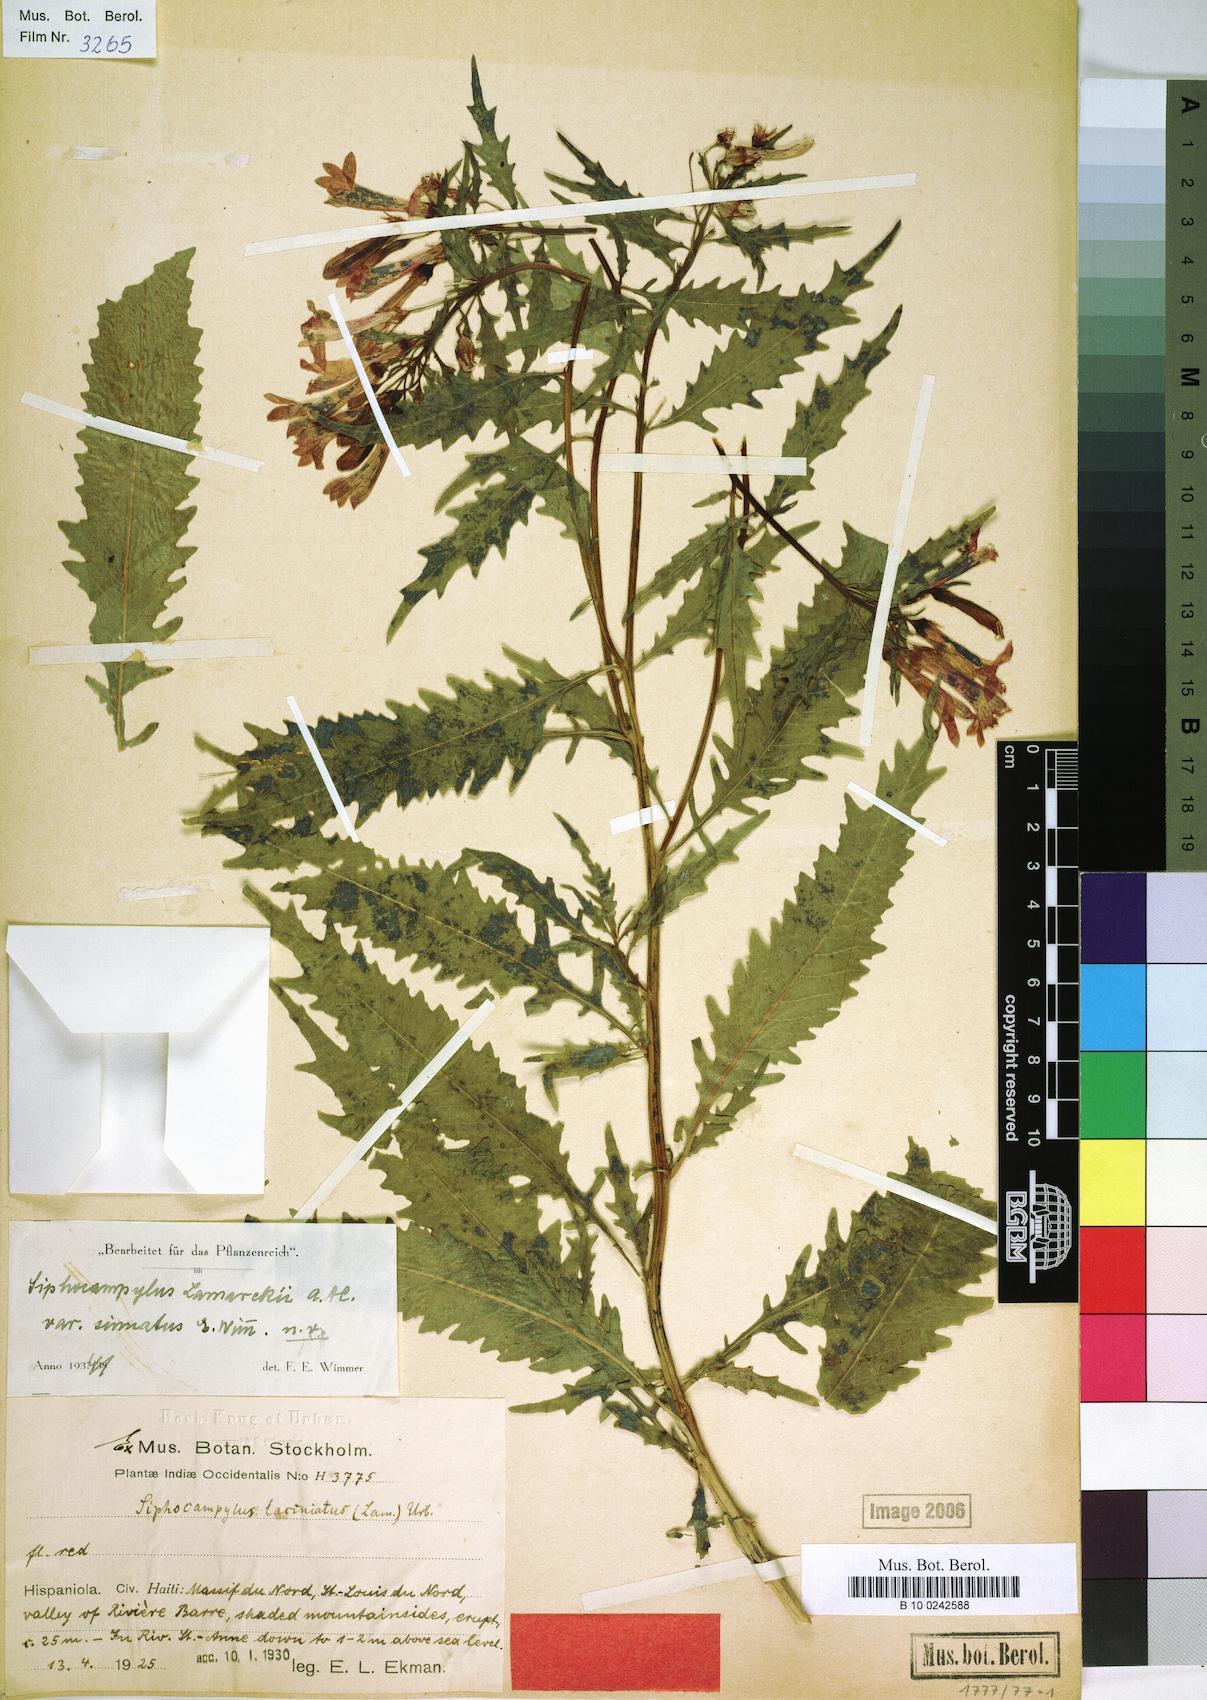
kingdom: Plantae
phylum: Tracheophyta
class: Magnoliopsida
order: Asterales
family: Campanulaceae
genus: Siphocampylus
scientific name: Siphocampylus sonchifolius
